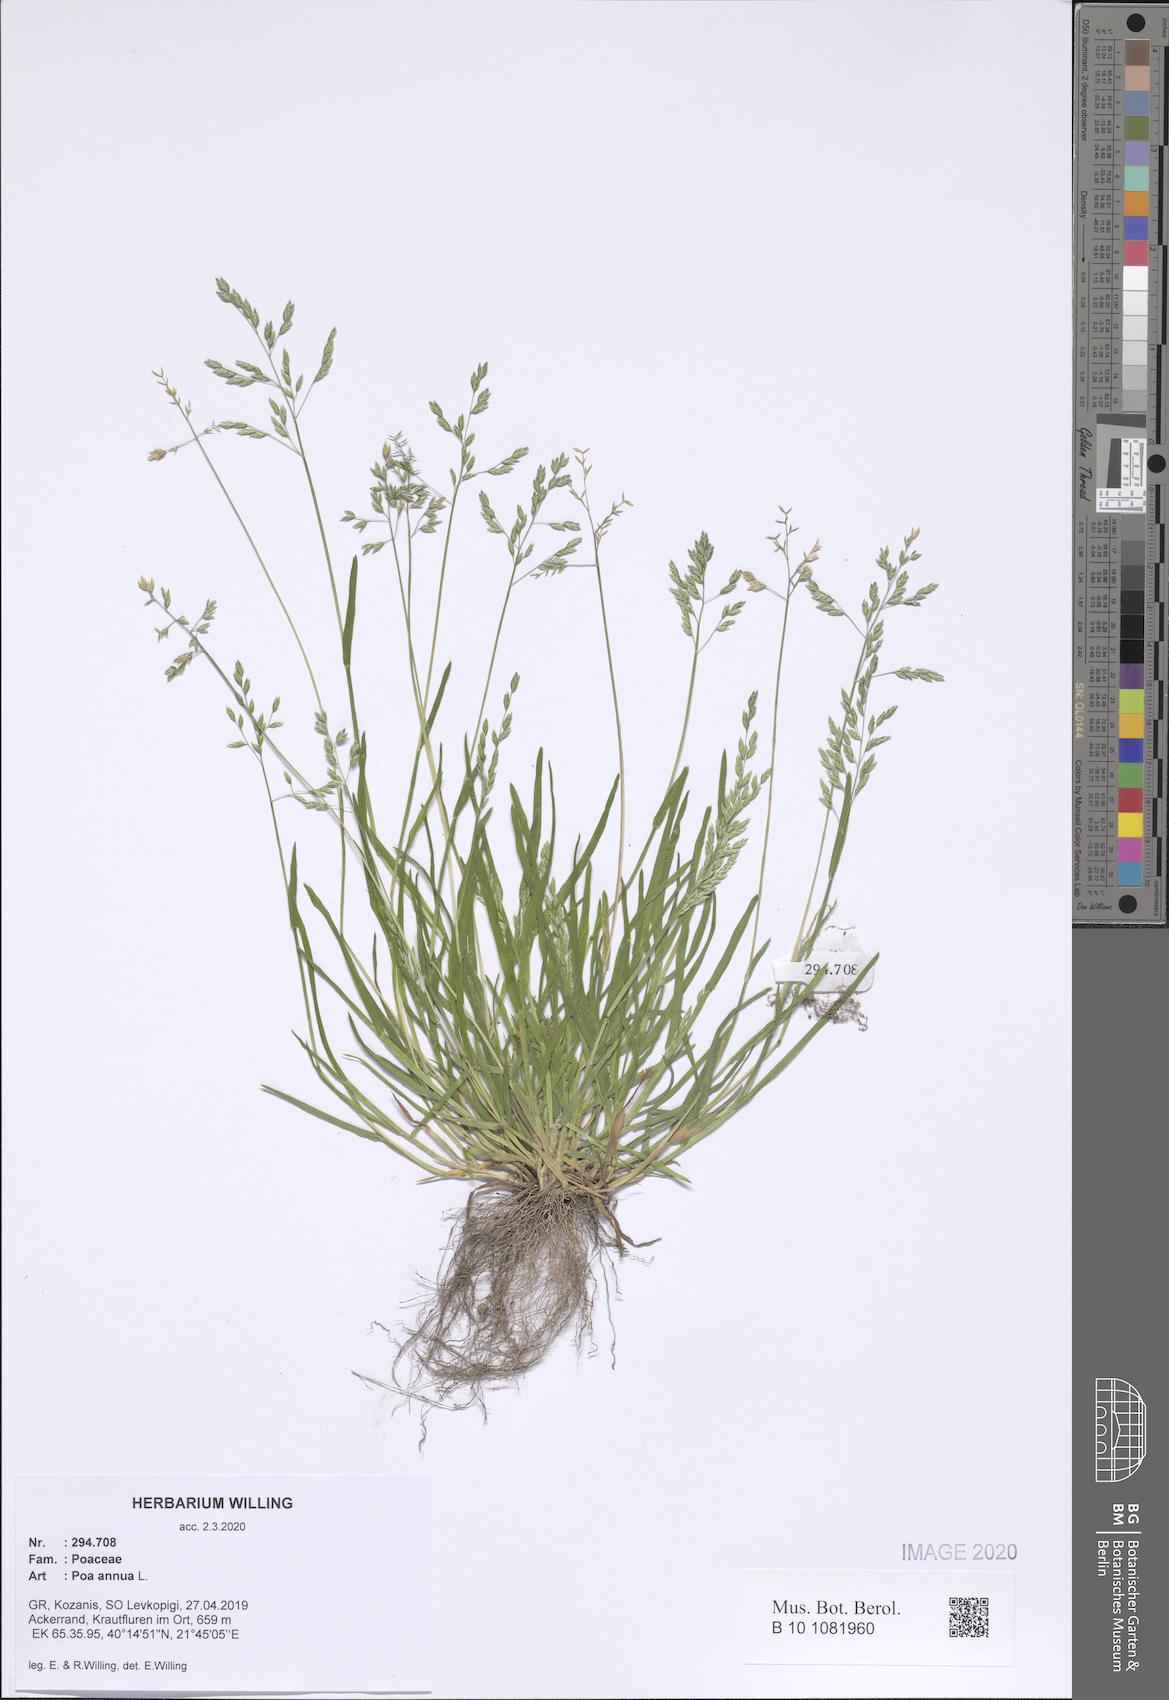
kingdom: Plantae
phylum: Tracheophyta
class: Liliopsida
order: Poales
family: Poaceae
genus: Poa
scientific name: Poa annua
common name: Annual bluegrass
